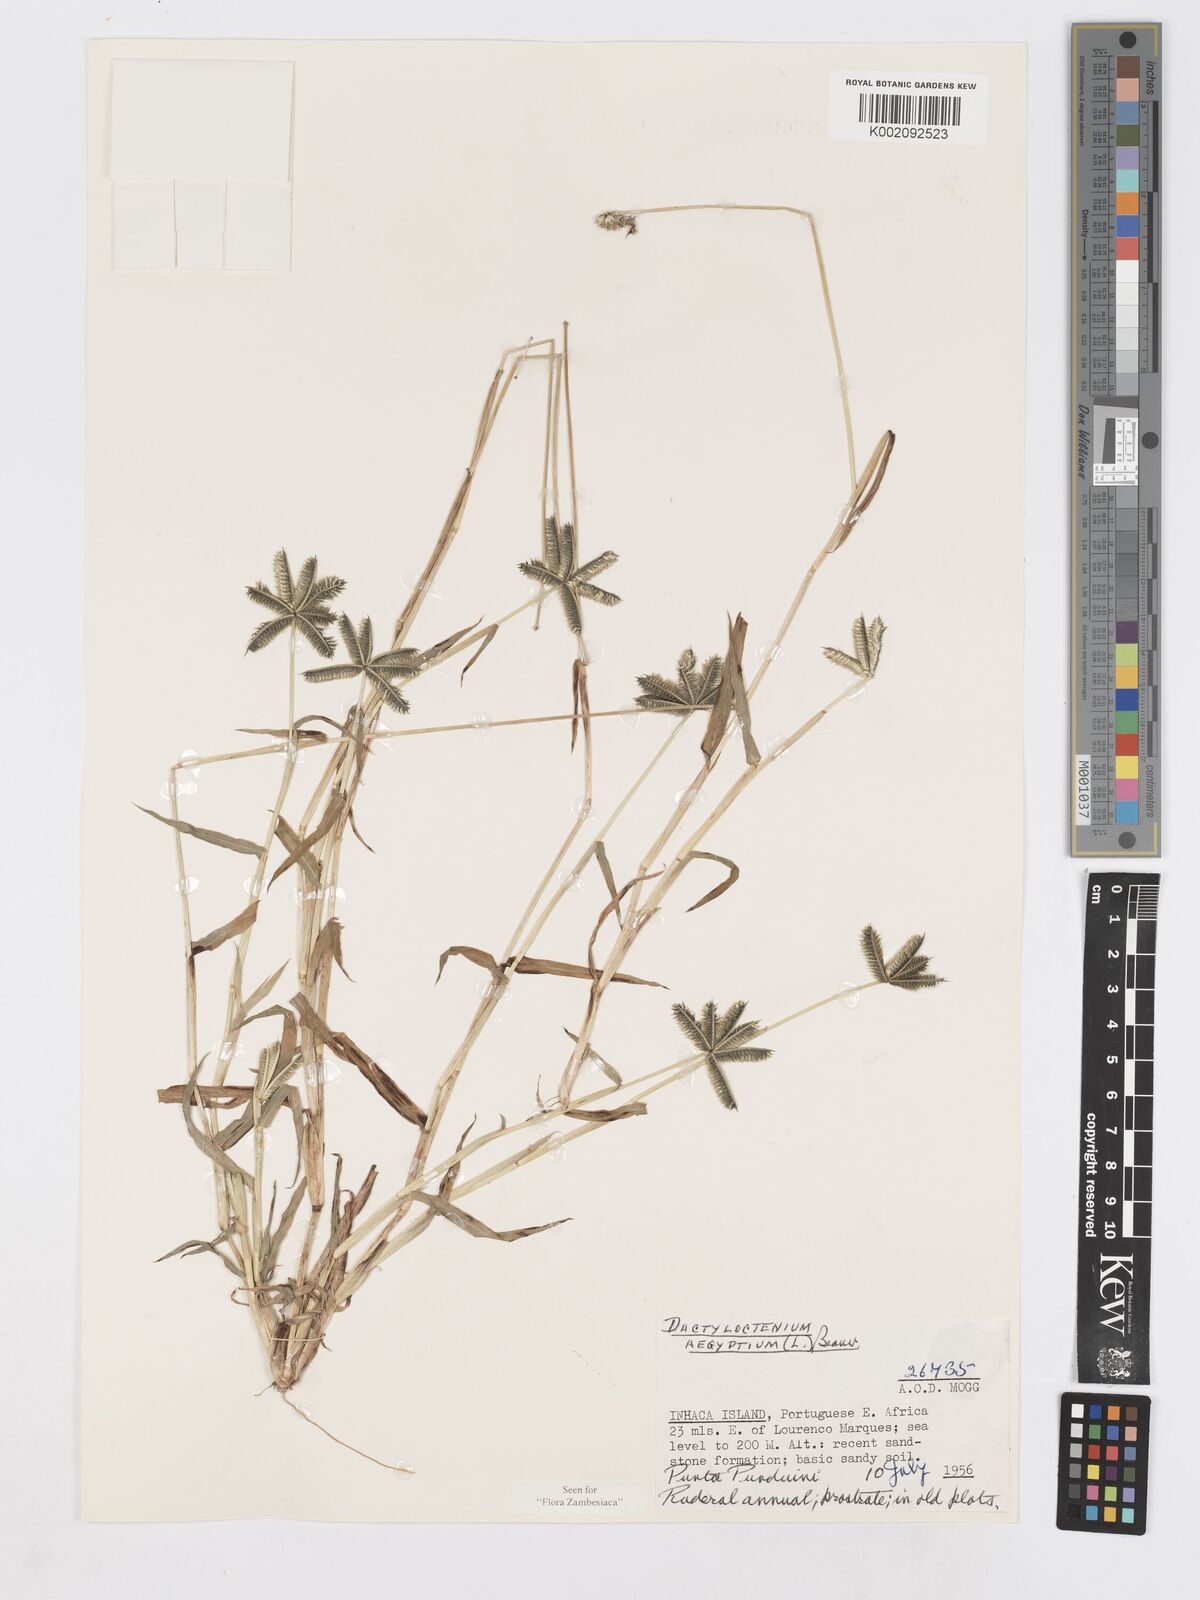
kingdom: Plantae
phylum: Tracheophyta
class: Liliopsida
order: Poales
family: Poaceae
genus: Dactyloctenium
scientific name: Dactyloctenium aegyptium
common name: Egyptian grass
